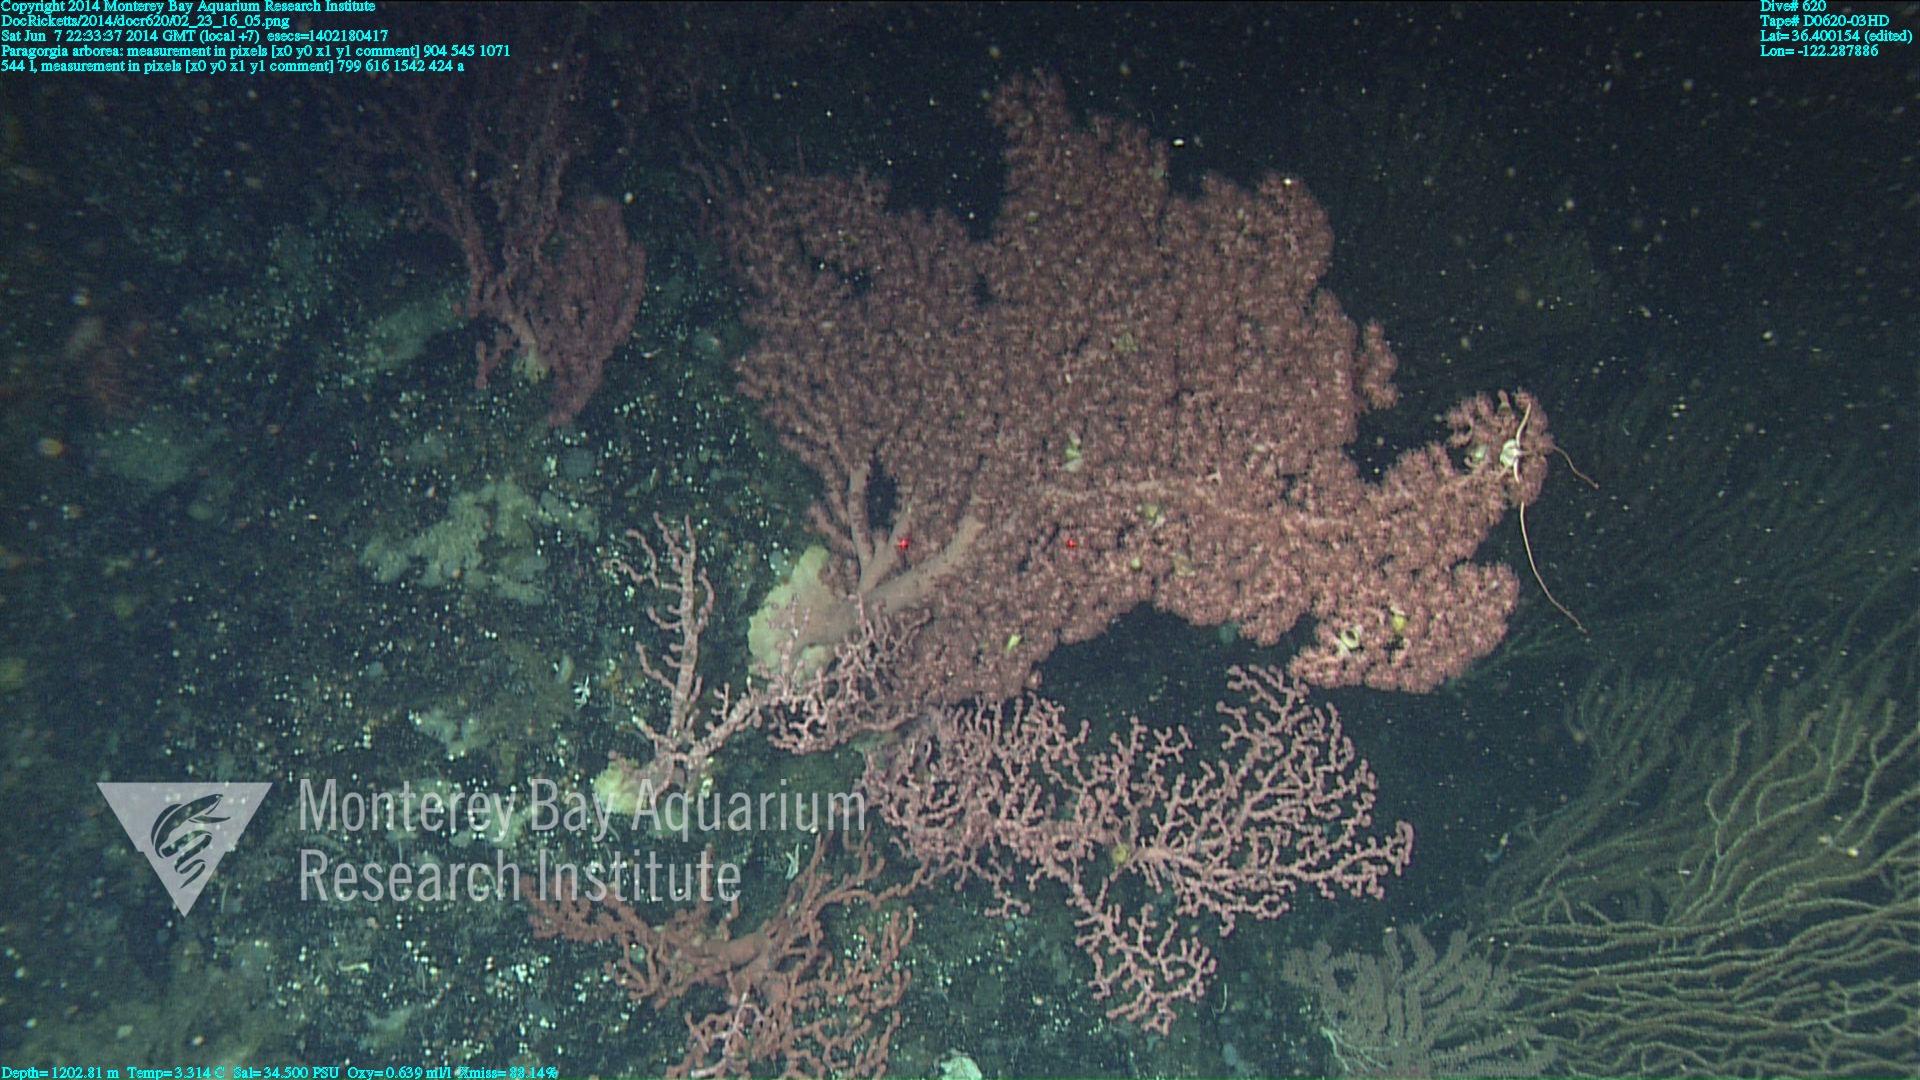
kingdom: Animalia
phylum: Cnidaria
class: Anthozoa
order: Scleralcyonacea
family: Coralliidae
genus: Paragorgia
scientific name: Paragorgia arborea
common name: Bubble gum coral
